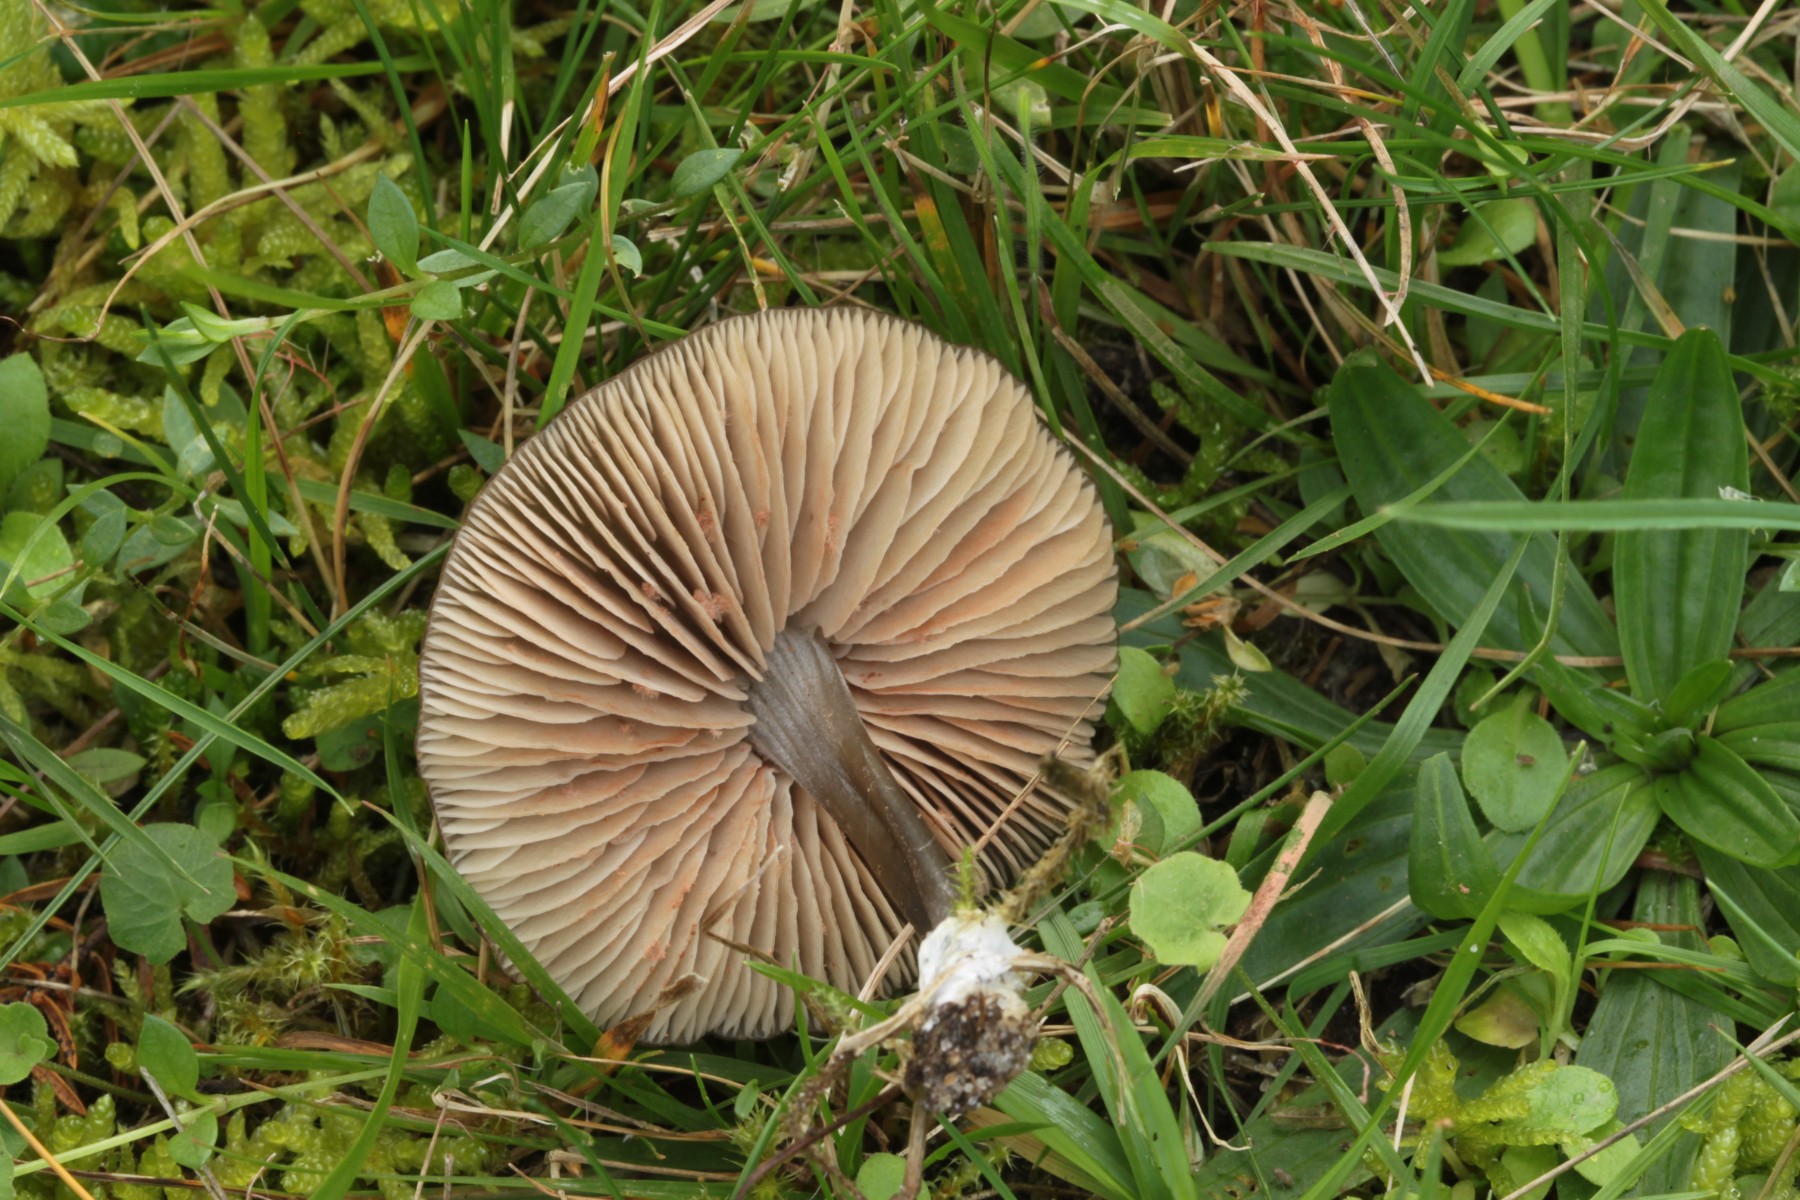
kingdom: Fungi
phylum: Basidiomycota
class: Agaricomycetes
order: Agaricales
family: Entolomataceae
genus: Entoloma
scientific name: Entoloma
